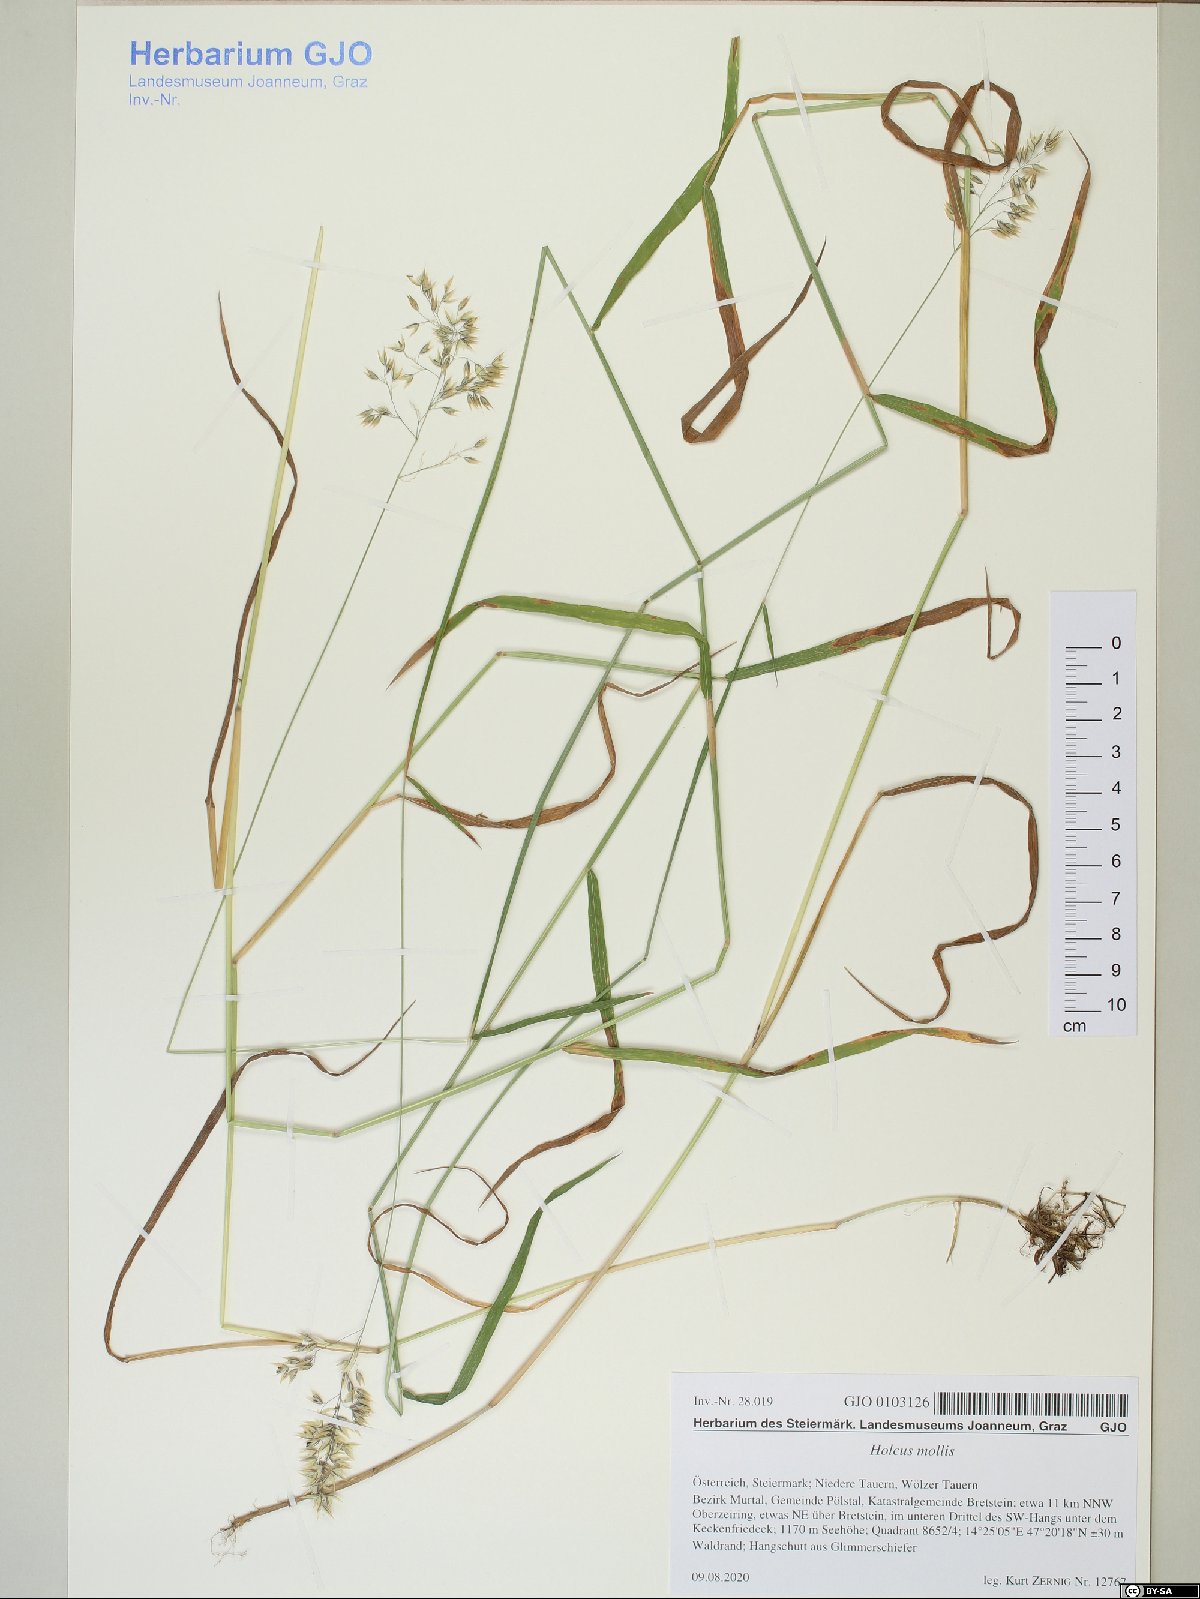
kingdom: Plantae
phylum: Tracheophyta
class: Liliopsida
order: Poales
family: Poaceae
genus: Holcus
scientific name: Holcus mollis
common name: Creeping velvetgrass
